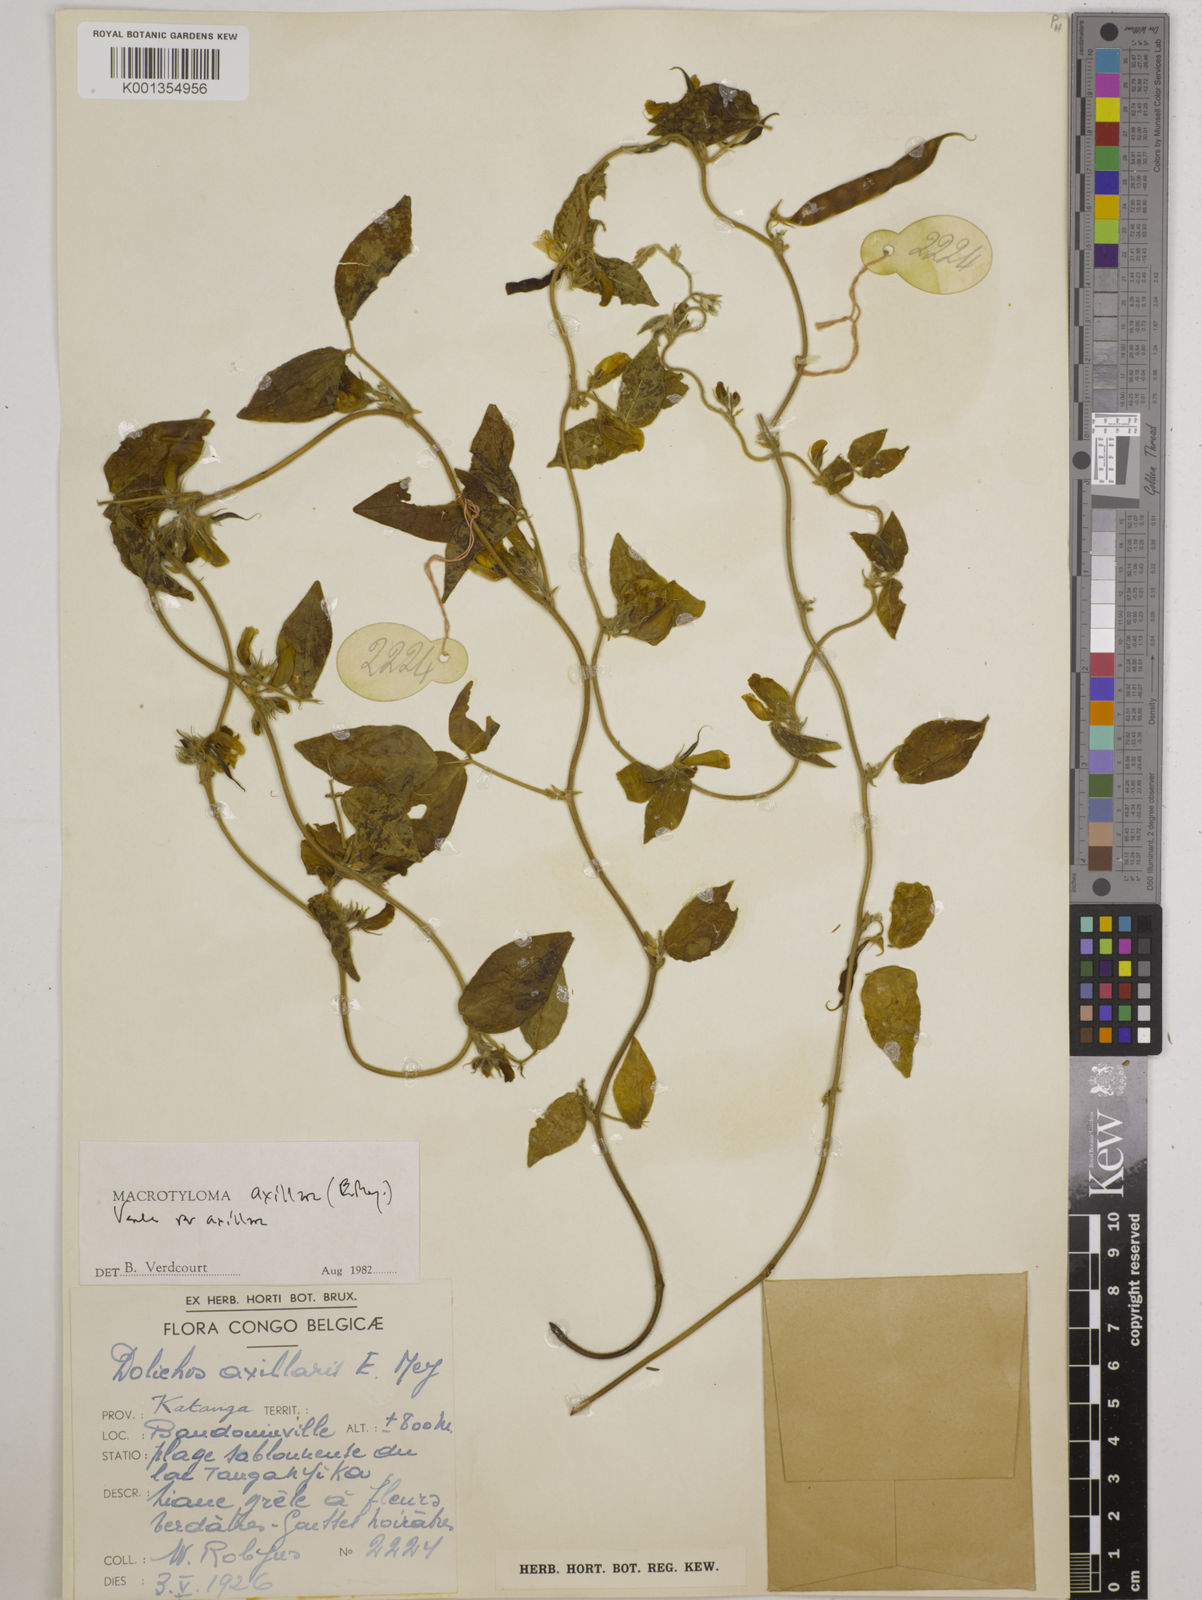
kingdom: Plantae
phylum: Tracheophyta
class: Magnoliopsida
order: Fabales
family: Fabaceae
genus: Macrotyloma
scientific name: Macrotyloma axillare
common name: Perennial horsegram
